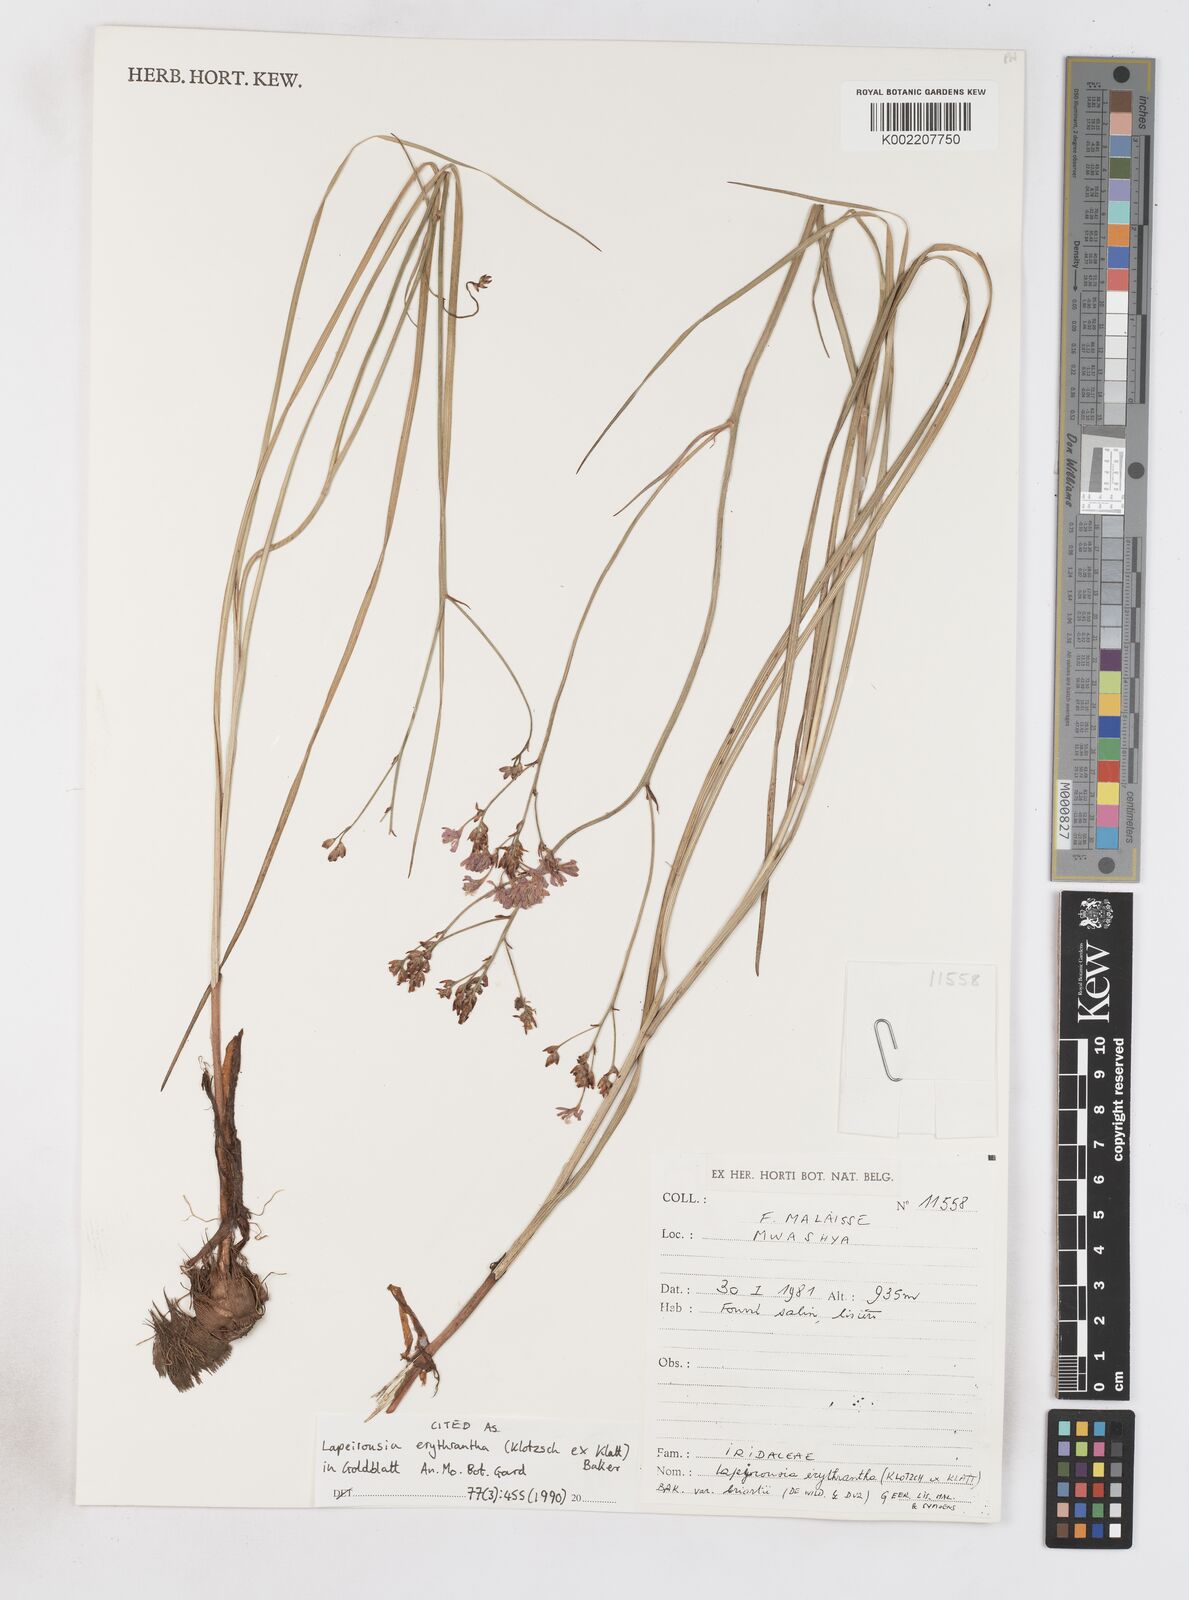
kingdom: Plantae
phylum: Tracheophyta
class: Liliopsida
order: Asparagales
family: Iridaceae
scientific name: Iridaceae
